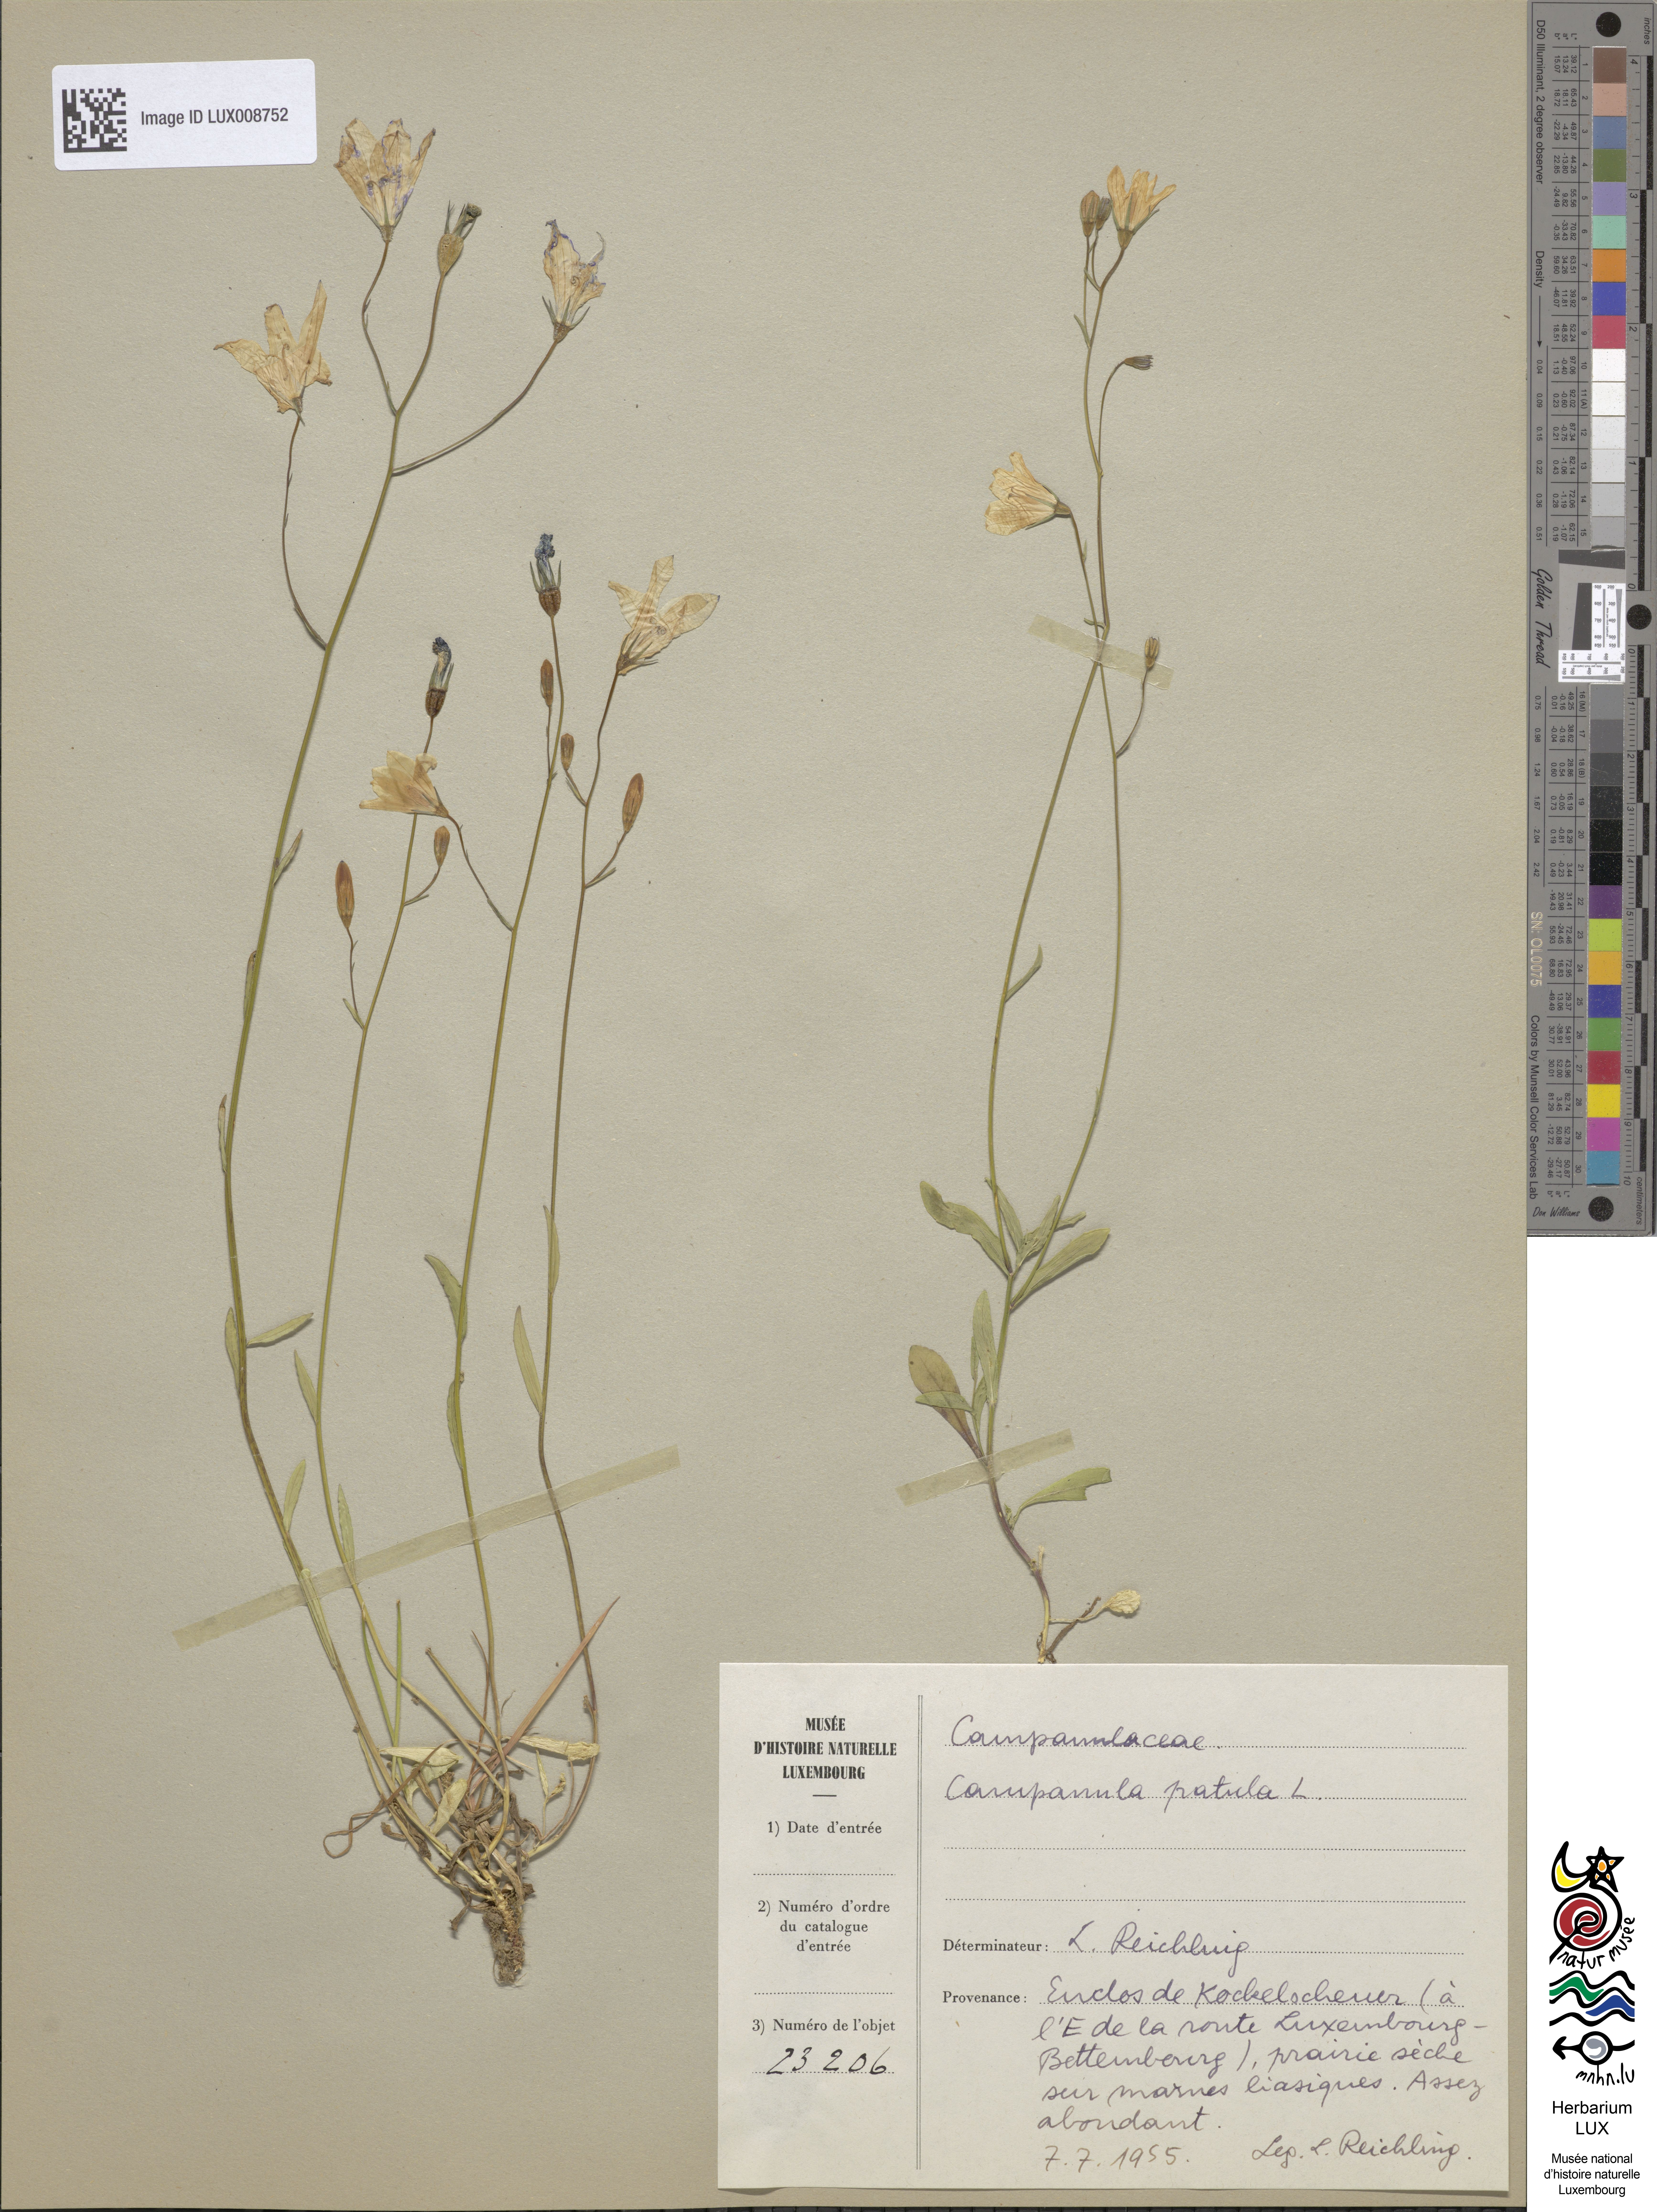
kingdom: Plantae
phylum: Tracheophyta
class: Magnoliopsida
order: Asterales
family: Campanulaceae
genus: Campanula
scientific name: Campanula patula
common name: Spreading bellflower
